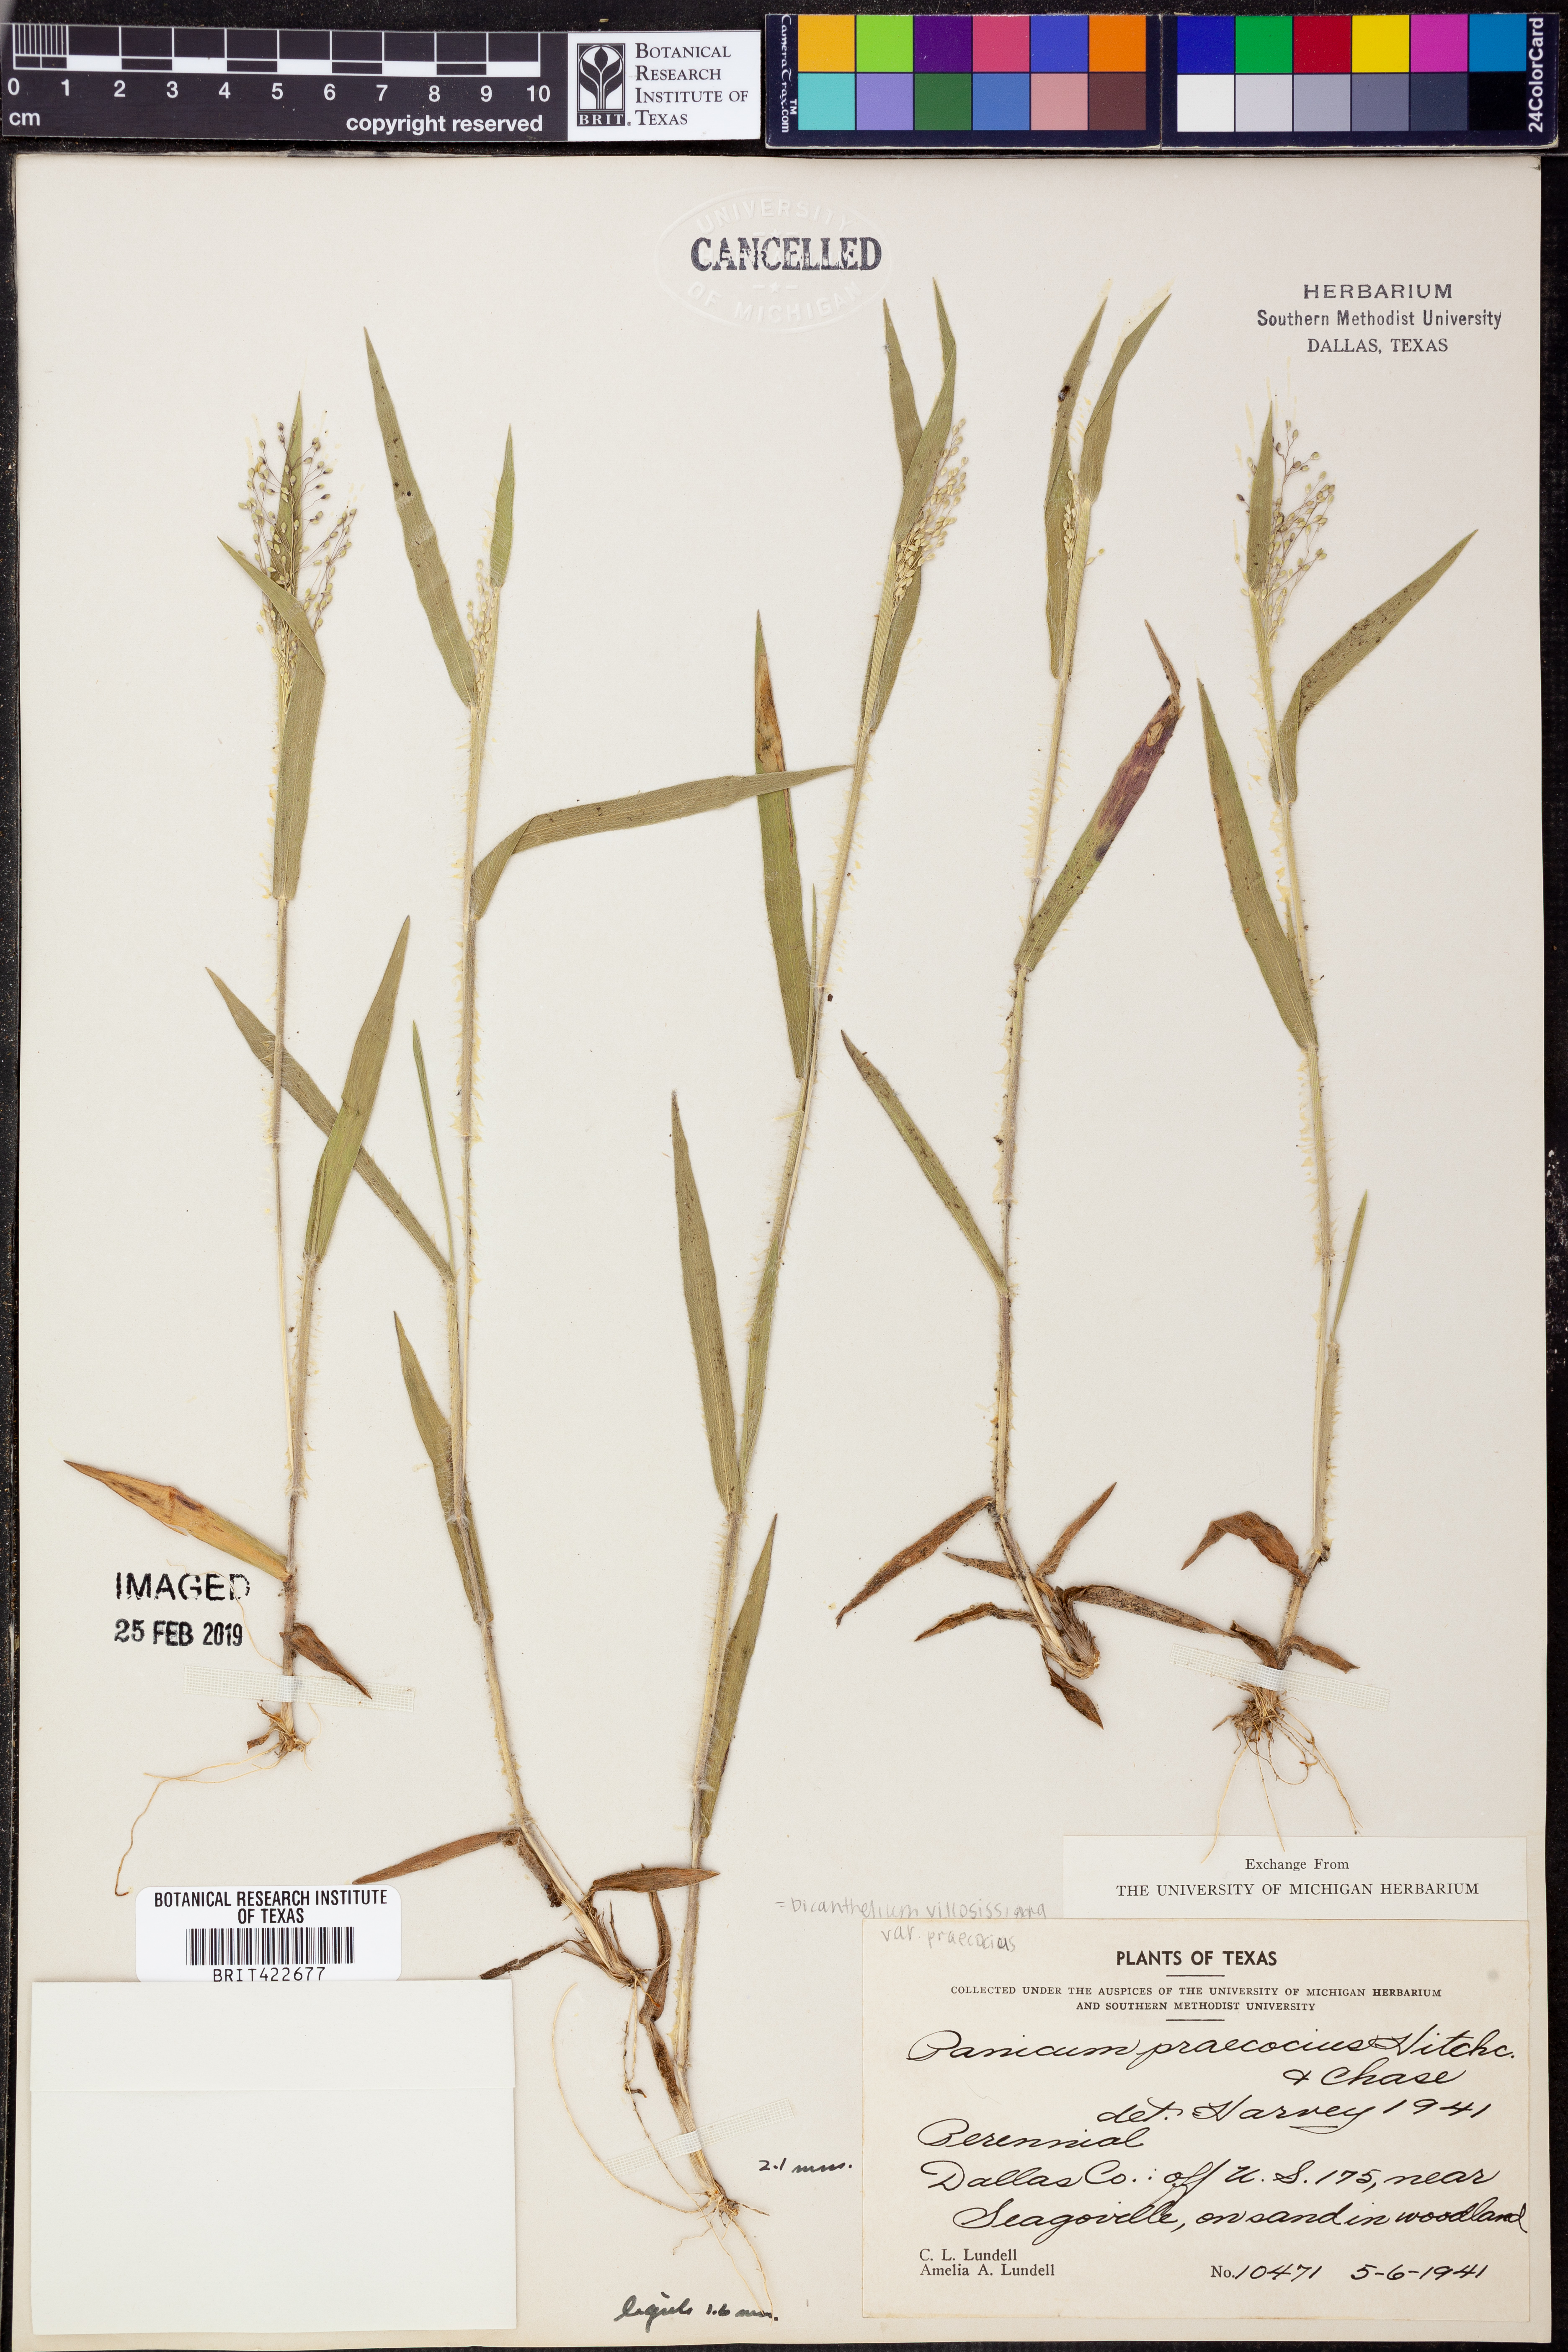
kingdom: Plantae
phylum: Tracheophyta
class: Liliopsida
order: Poales
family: Poaceae
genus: Dichanthelium
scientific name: Dichanthelium praecocius
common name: Early-branching panicgrass
